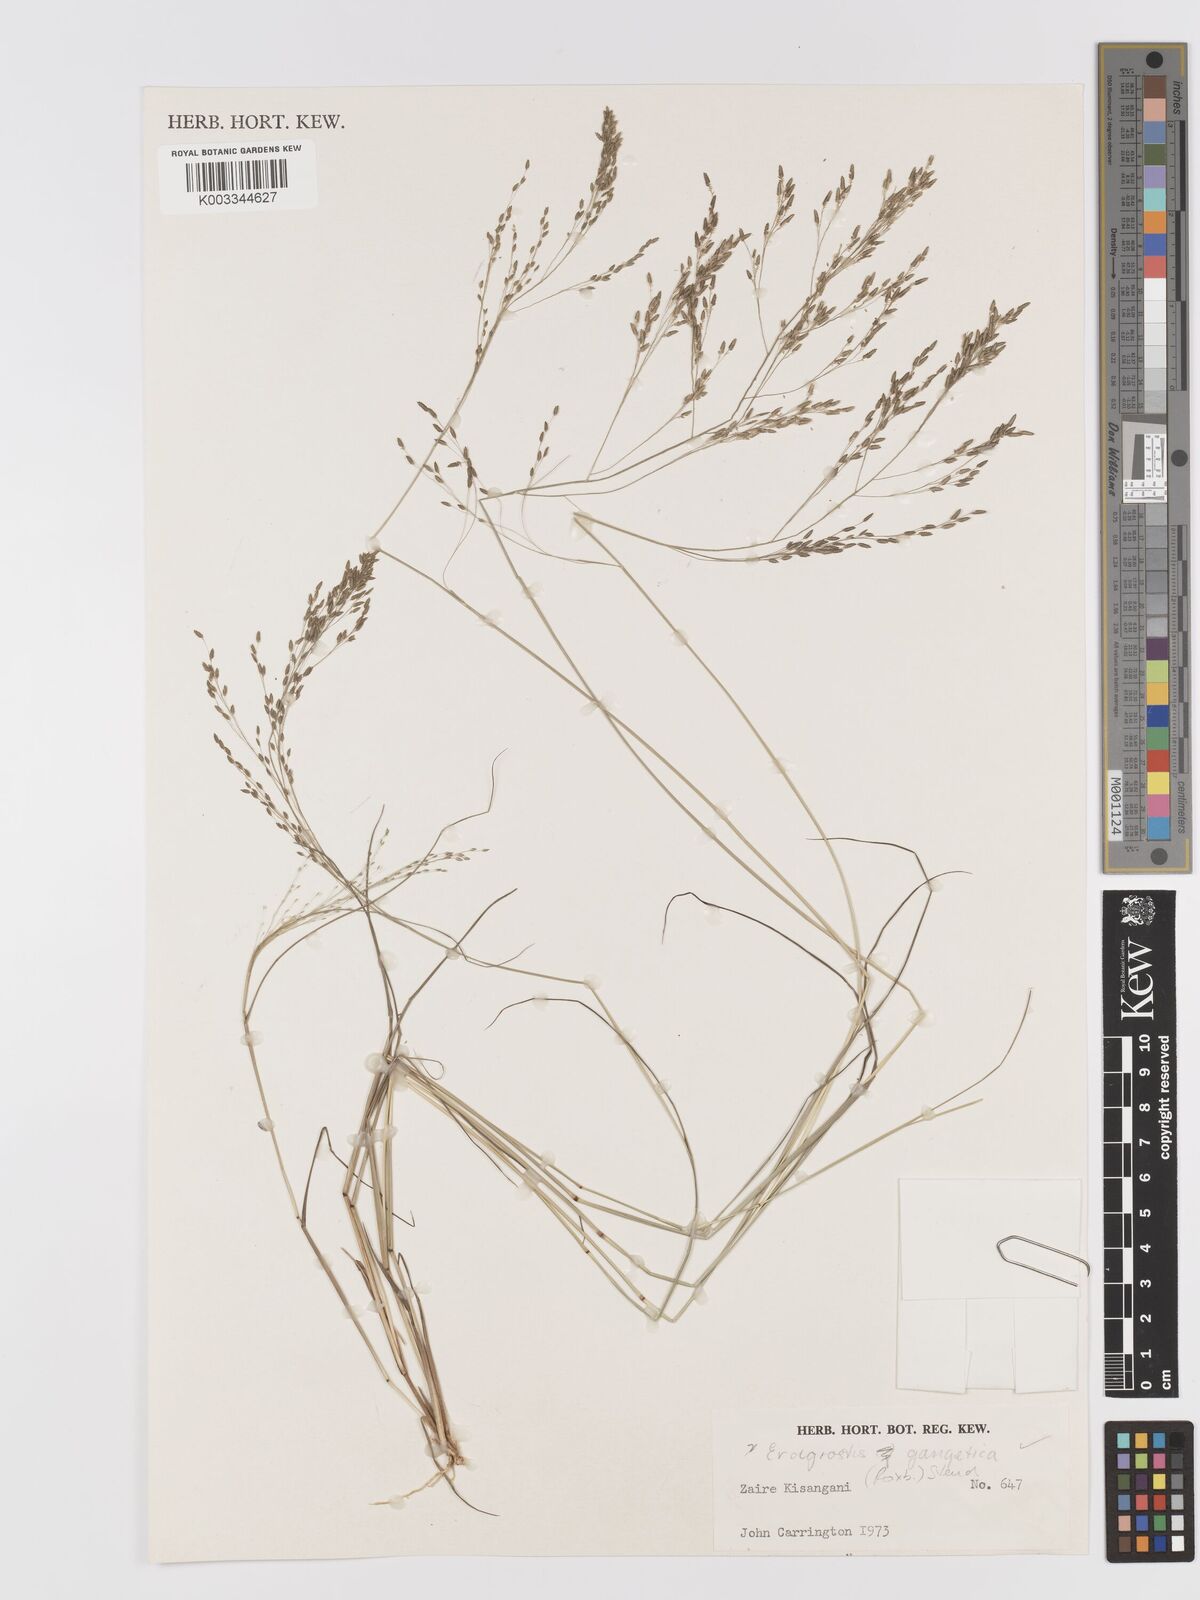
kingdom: Plantae
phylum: Tracheophyta
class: Liliopsida
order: Poales
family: Poaceae
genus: Eragrostis
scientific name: Eragrostis gangetica
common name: Slimflower lovegrass
